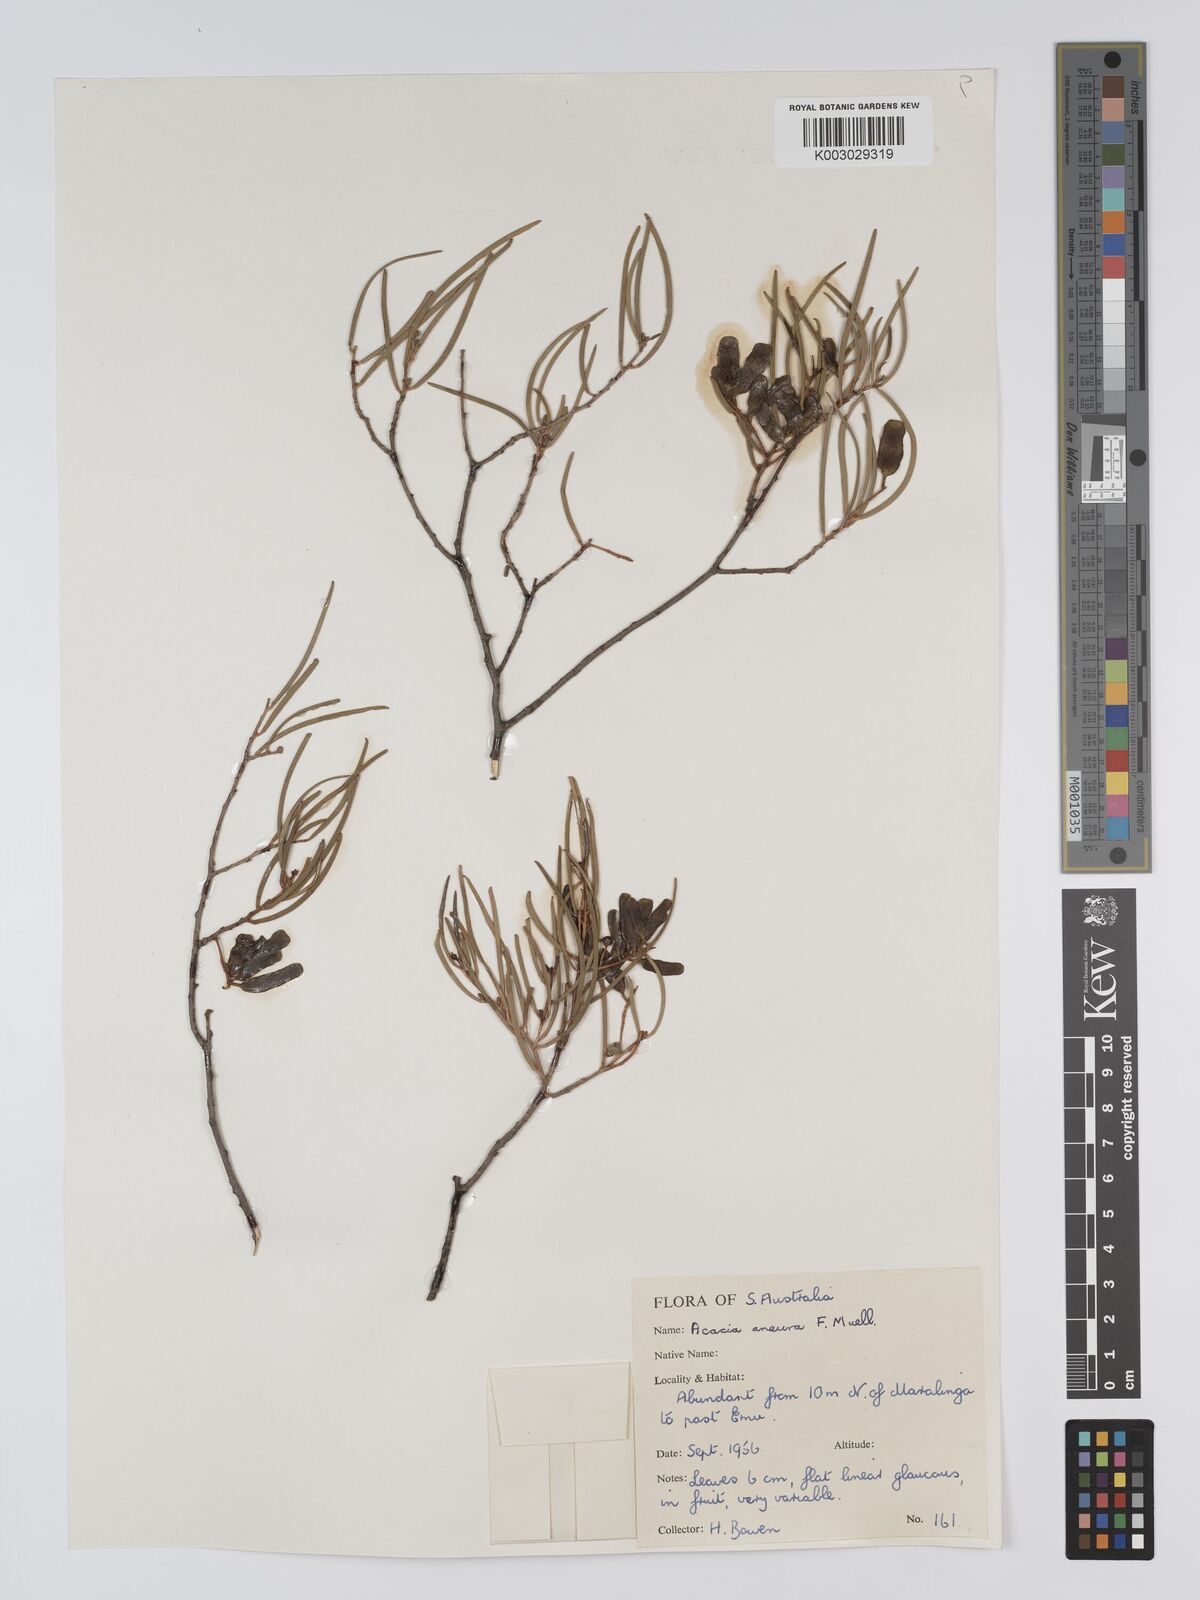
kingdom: Plantae
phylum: Tracheophyta
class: Magnoliopsida
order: Fabales
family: Fabaceae
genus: Acacia
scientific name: Acacia aneura
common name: Mulga
